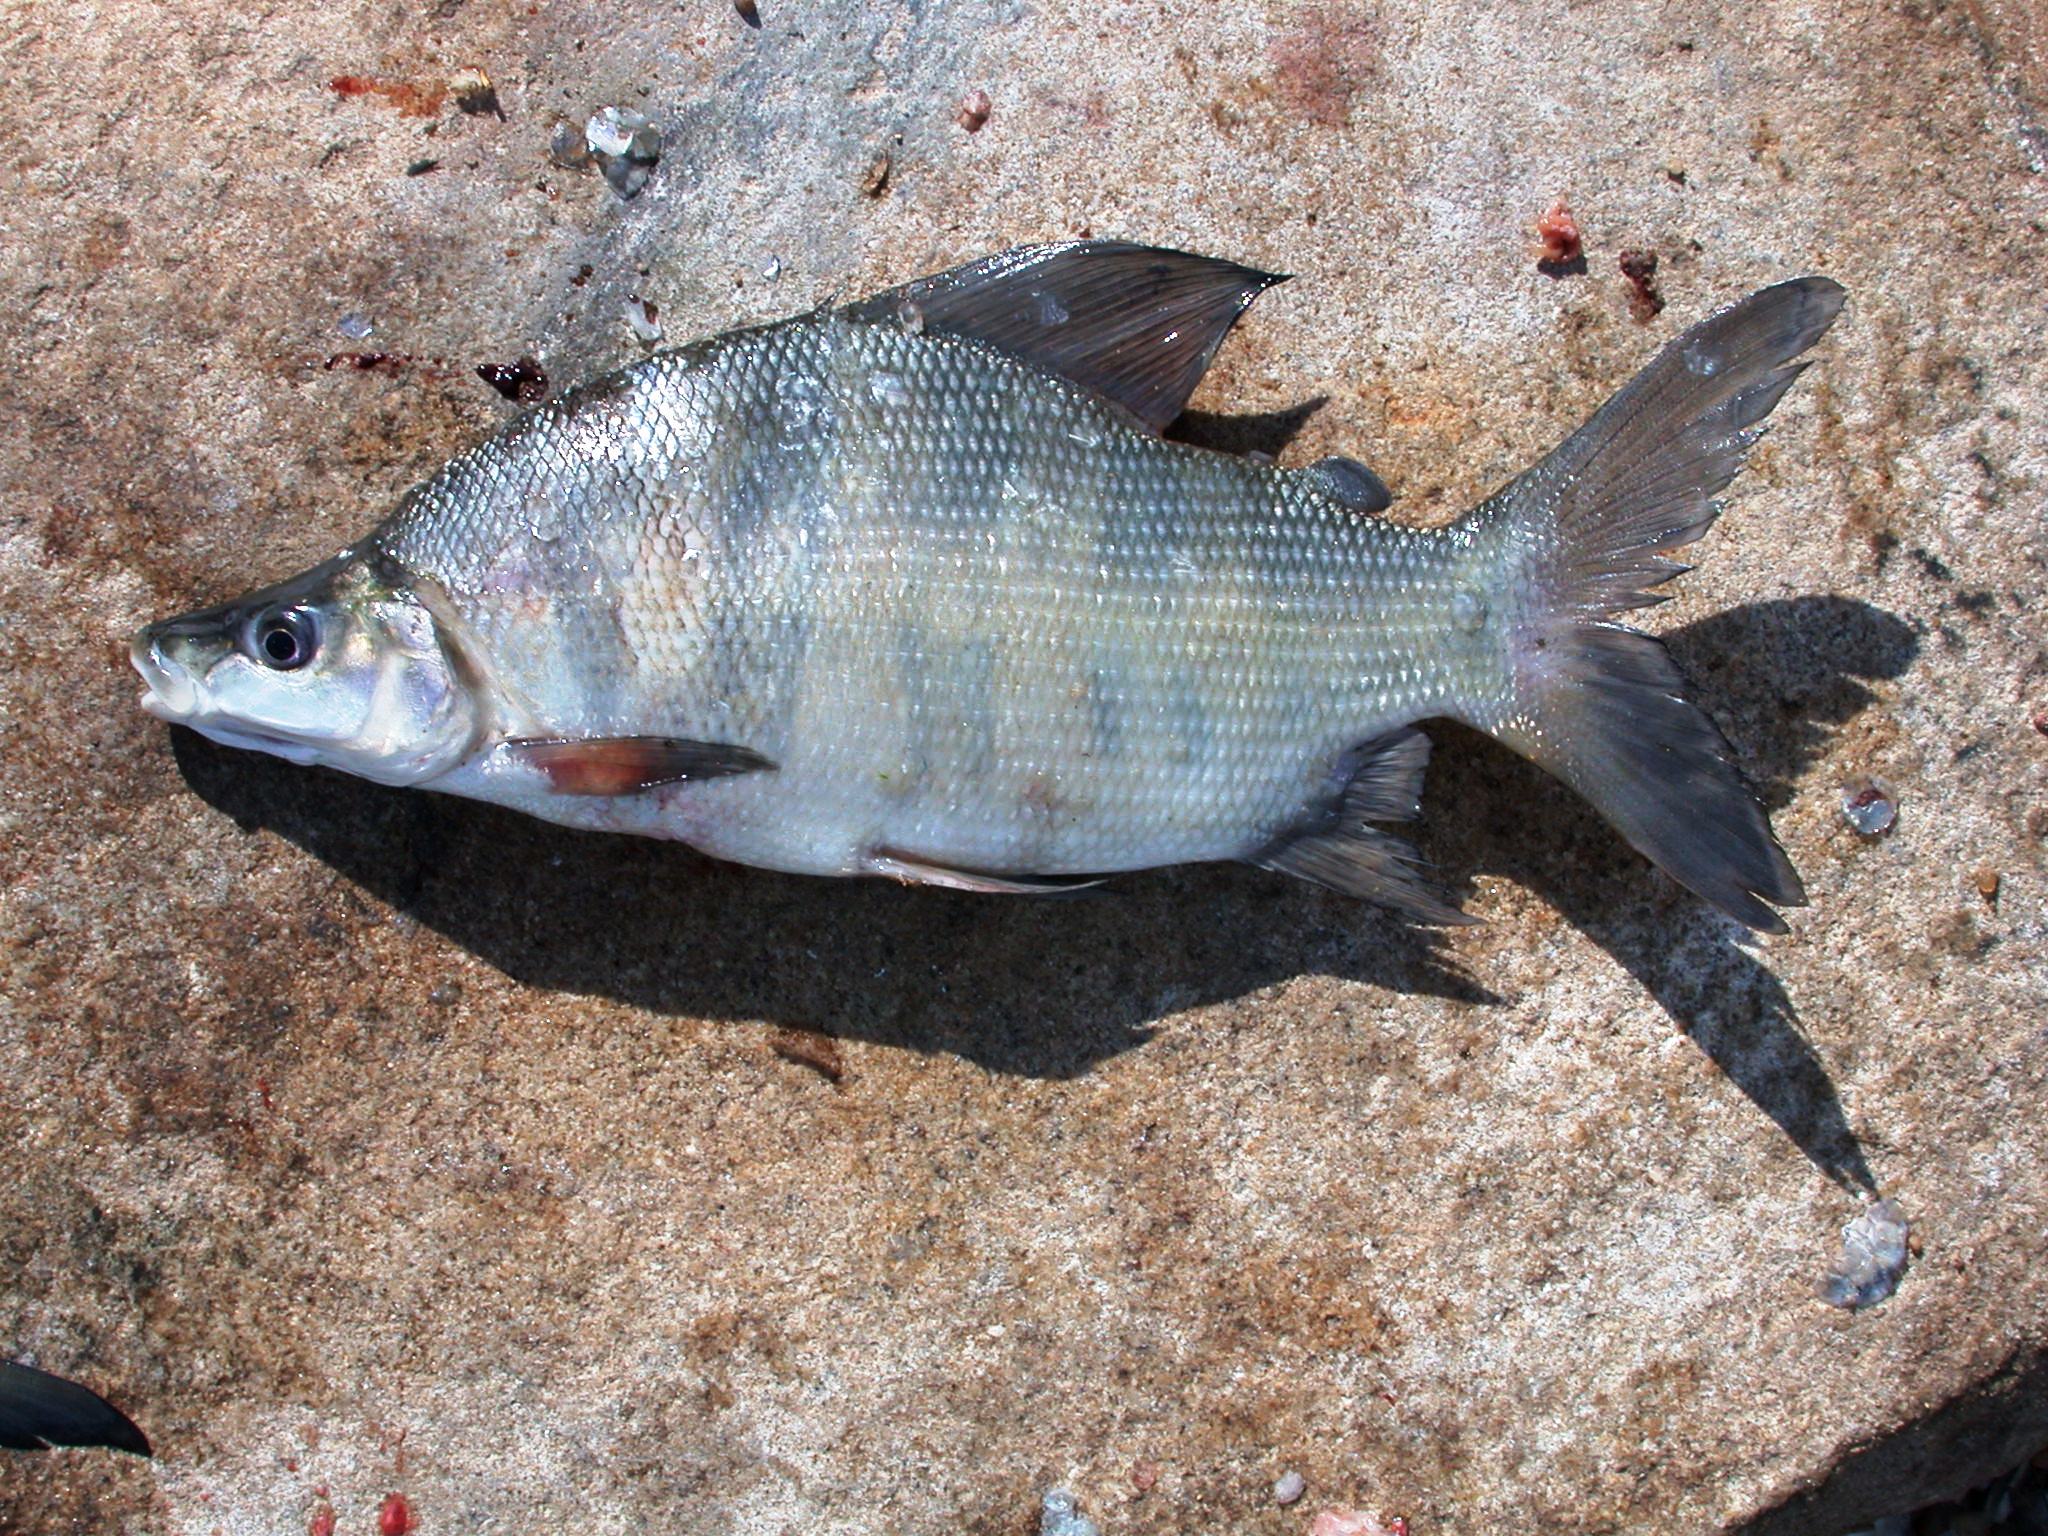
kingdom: Animalia
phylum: Chordata
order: Characiformes
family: Distichodontidae
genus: Distichodus
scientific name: Distichodus mossambicus
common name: Nkupe
